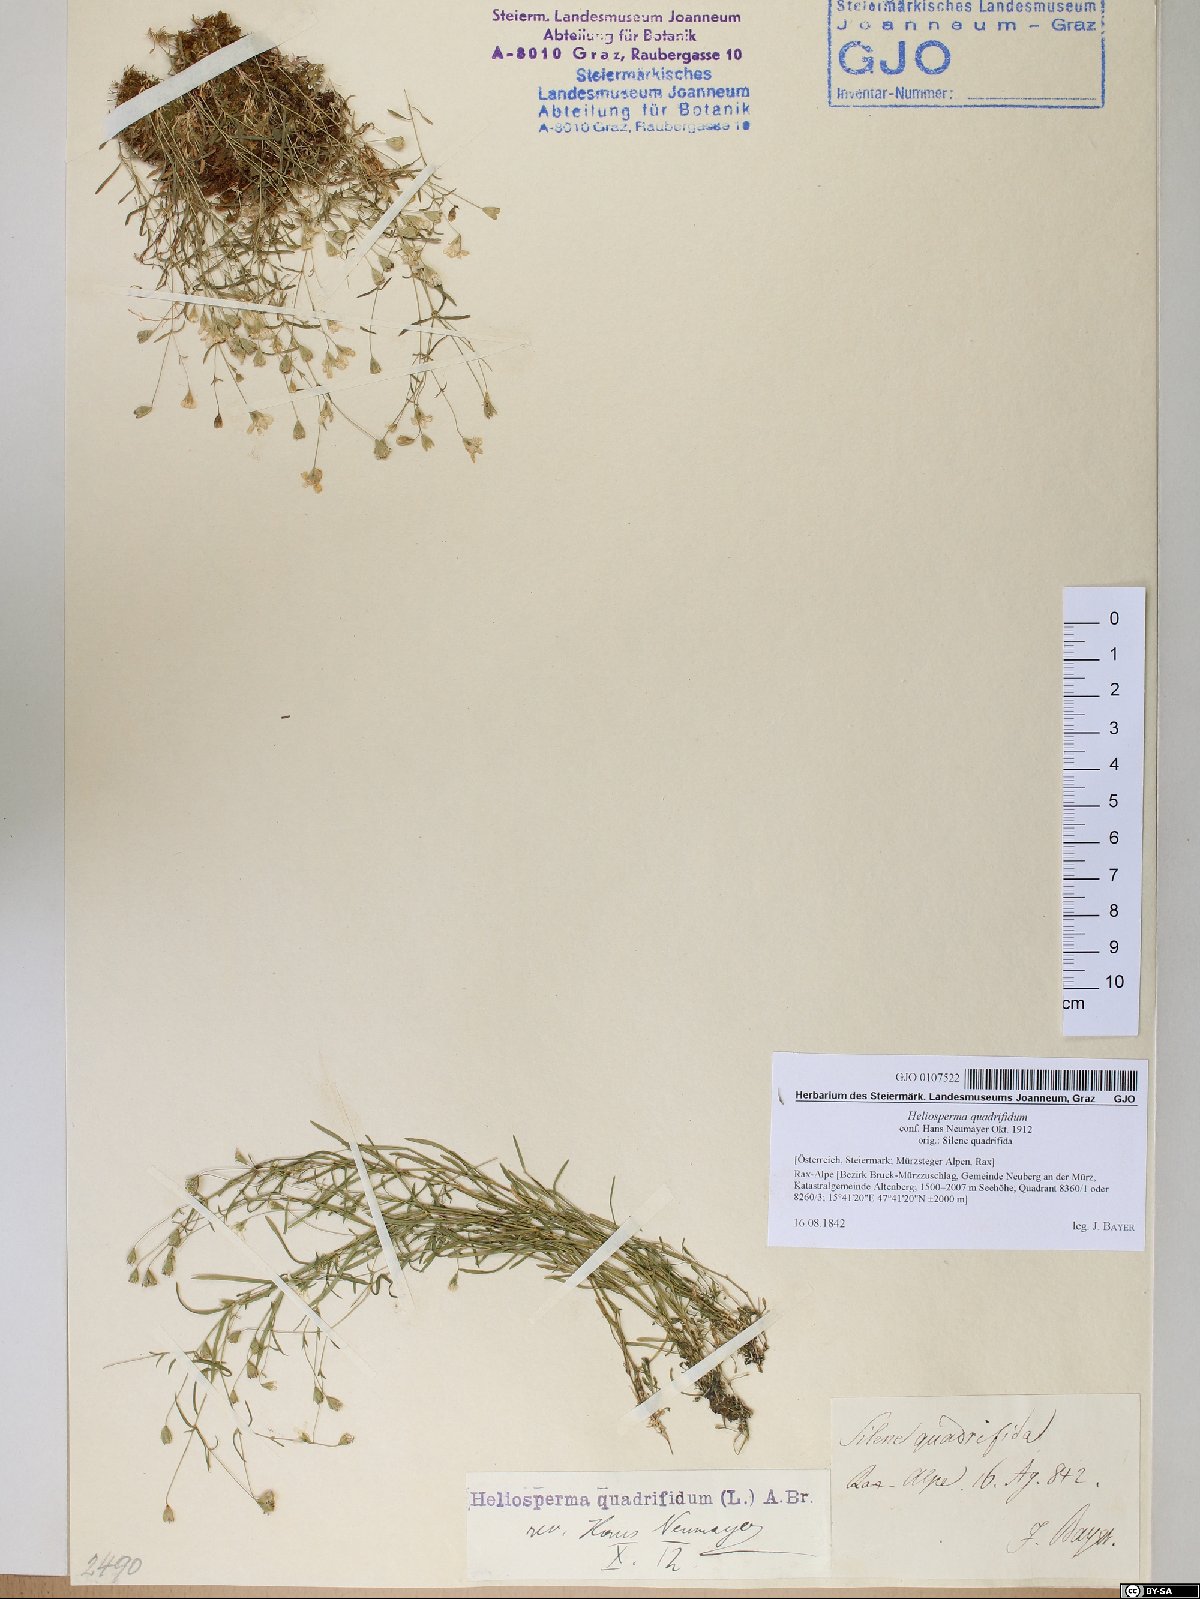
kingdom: Plantae
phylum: Tracheophyta
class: Magnoliopsida
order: Caryophyllales
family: Caryophyllaceae
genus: Heliosperma
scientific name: Heliosperma alpestre
